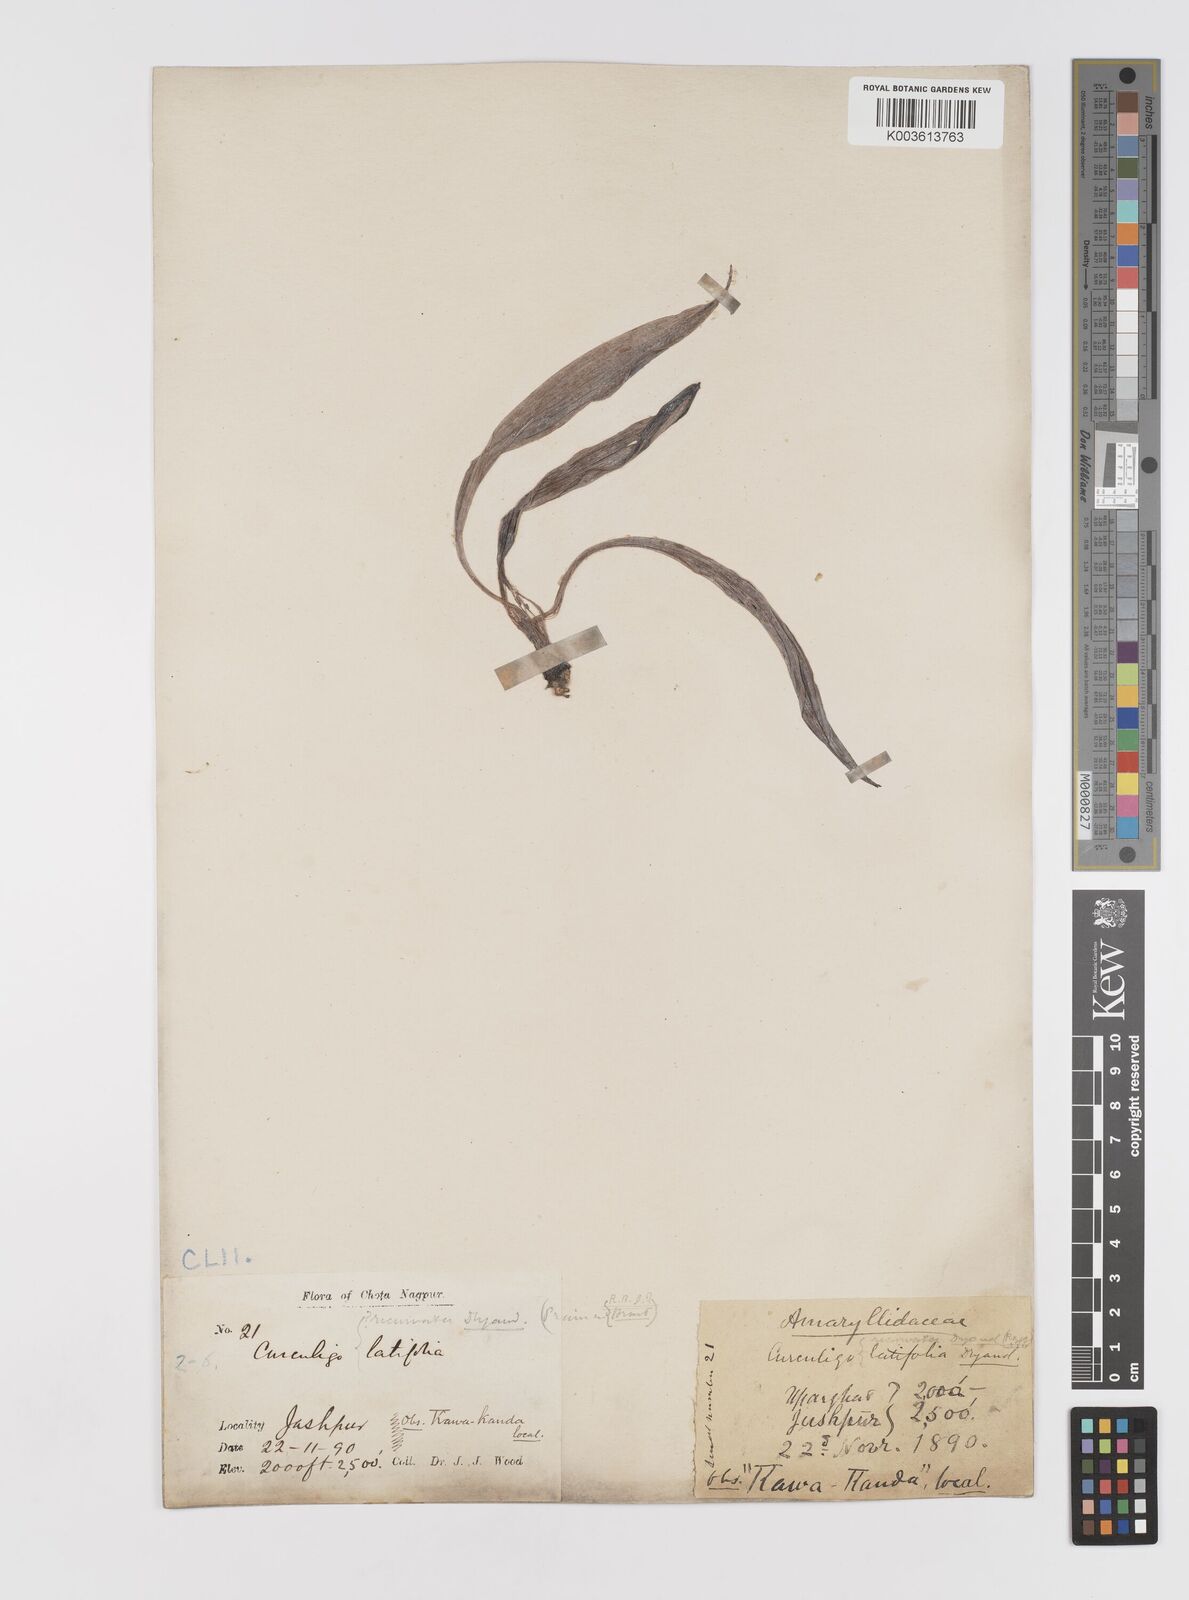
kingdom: Plantae
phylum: Tracheophyta
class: Liliopsida
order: Asparagales
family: Hypoxidaceae
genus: Curculigo
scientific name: Curculigo latifolia
